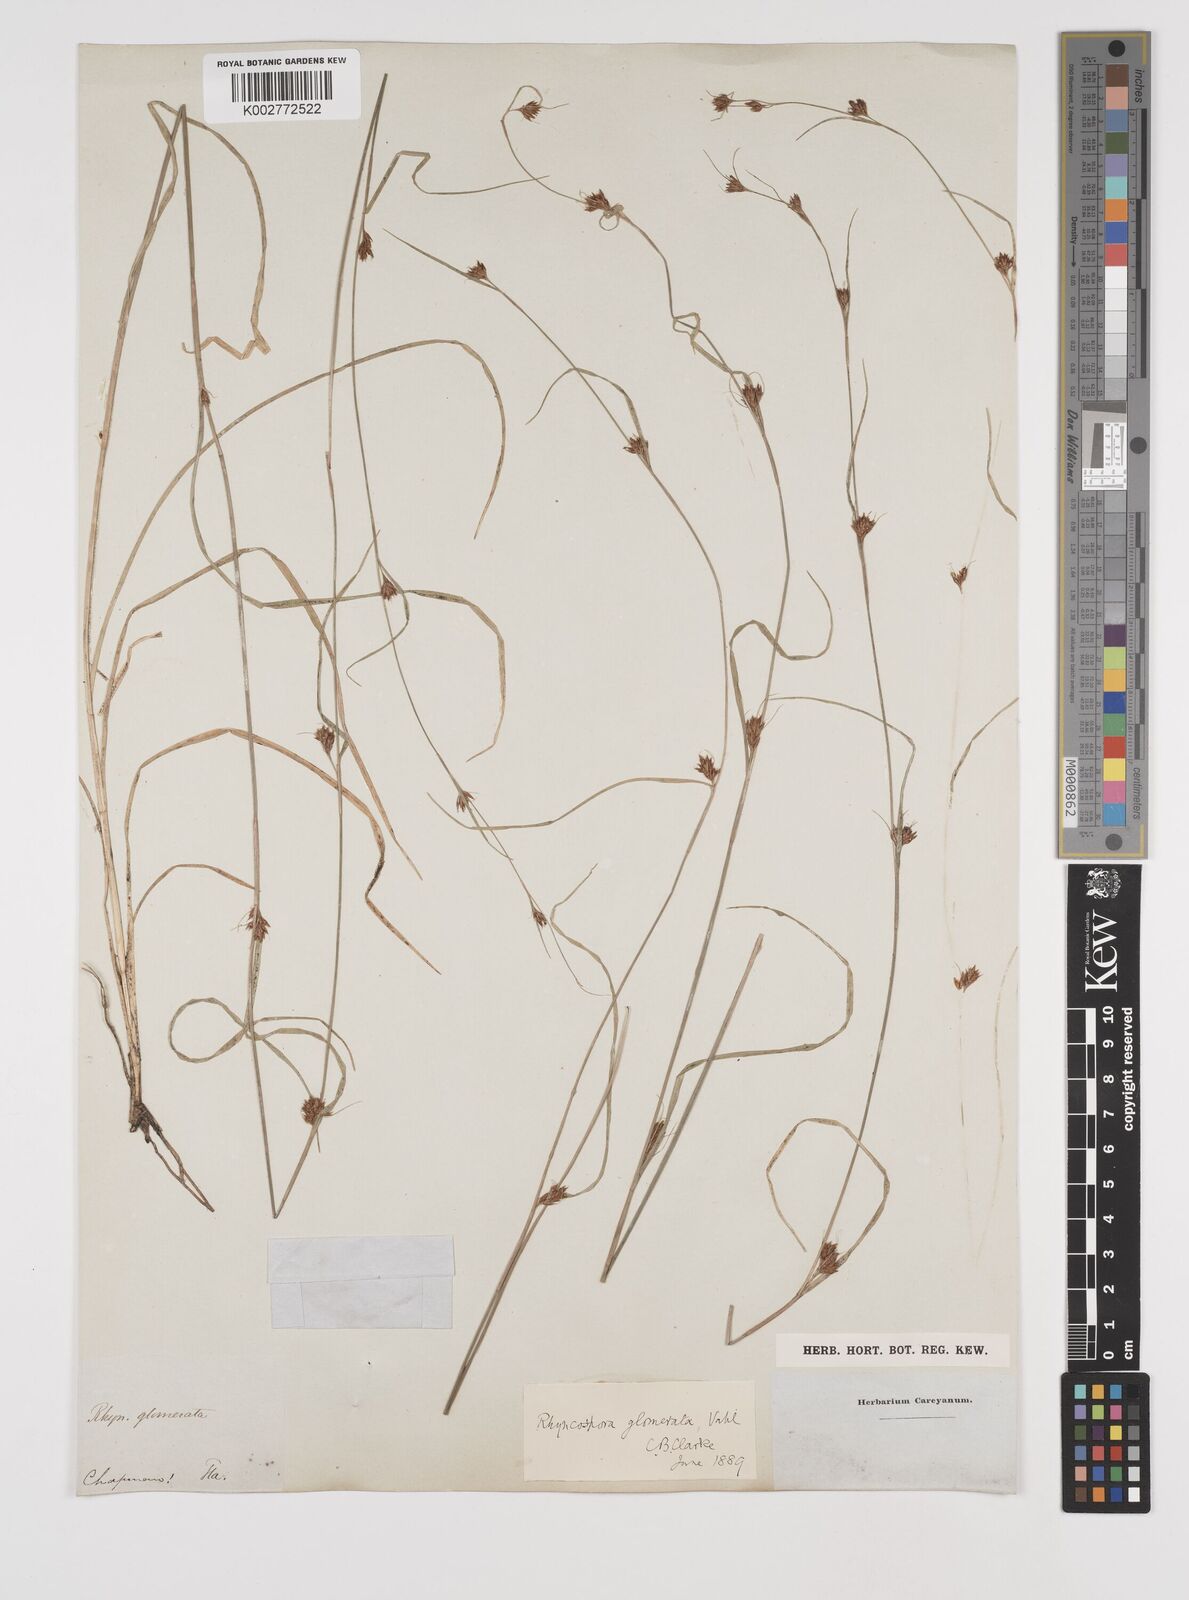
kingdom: Plantae
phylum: Tracheophyta
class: Liliopsida
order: Poales
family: Cyperaceae
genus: Rhynchospora
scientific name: Rhynchospora glomerata
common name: Cluster beak sedge
